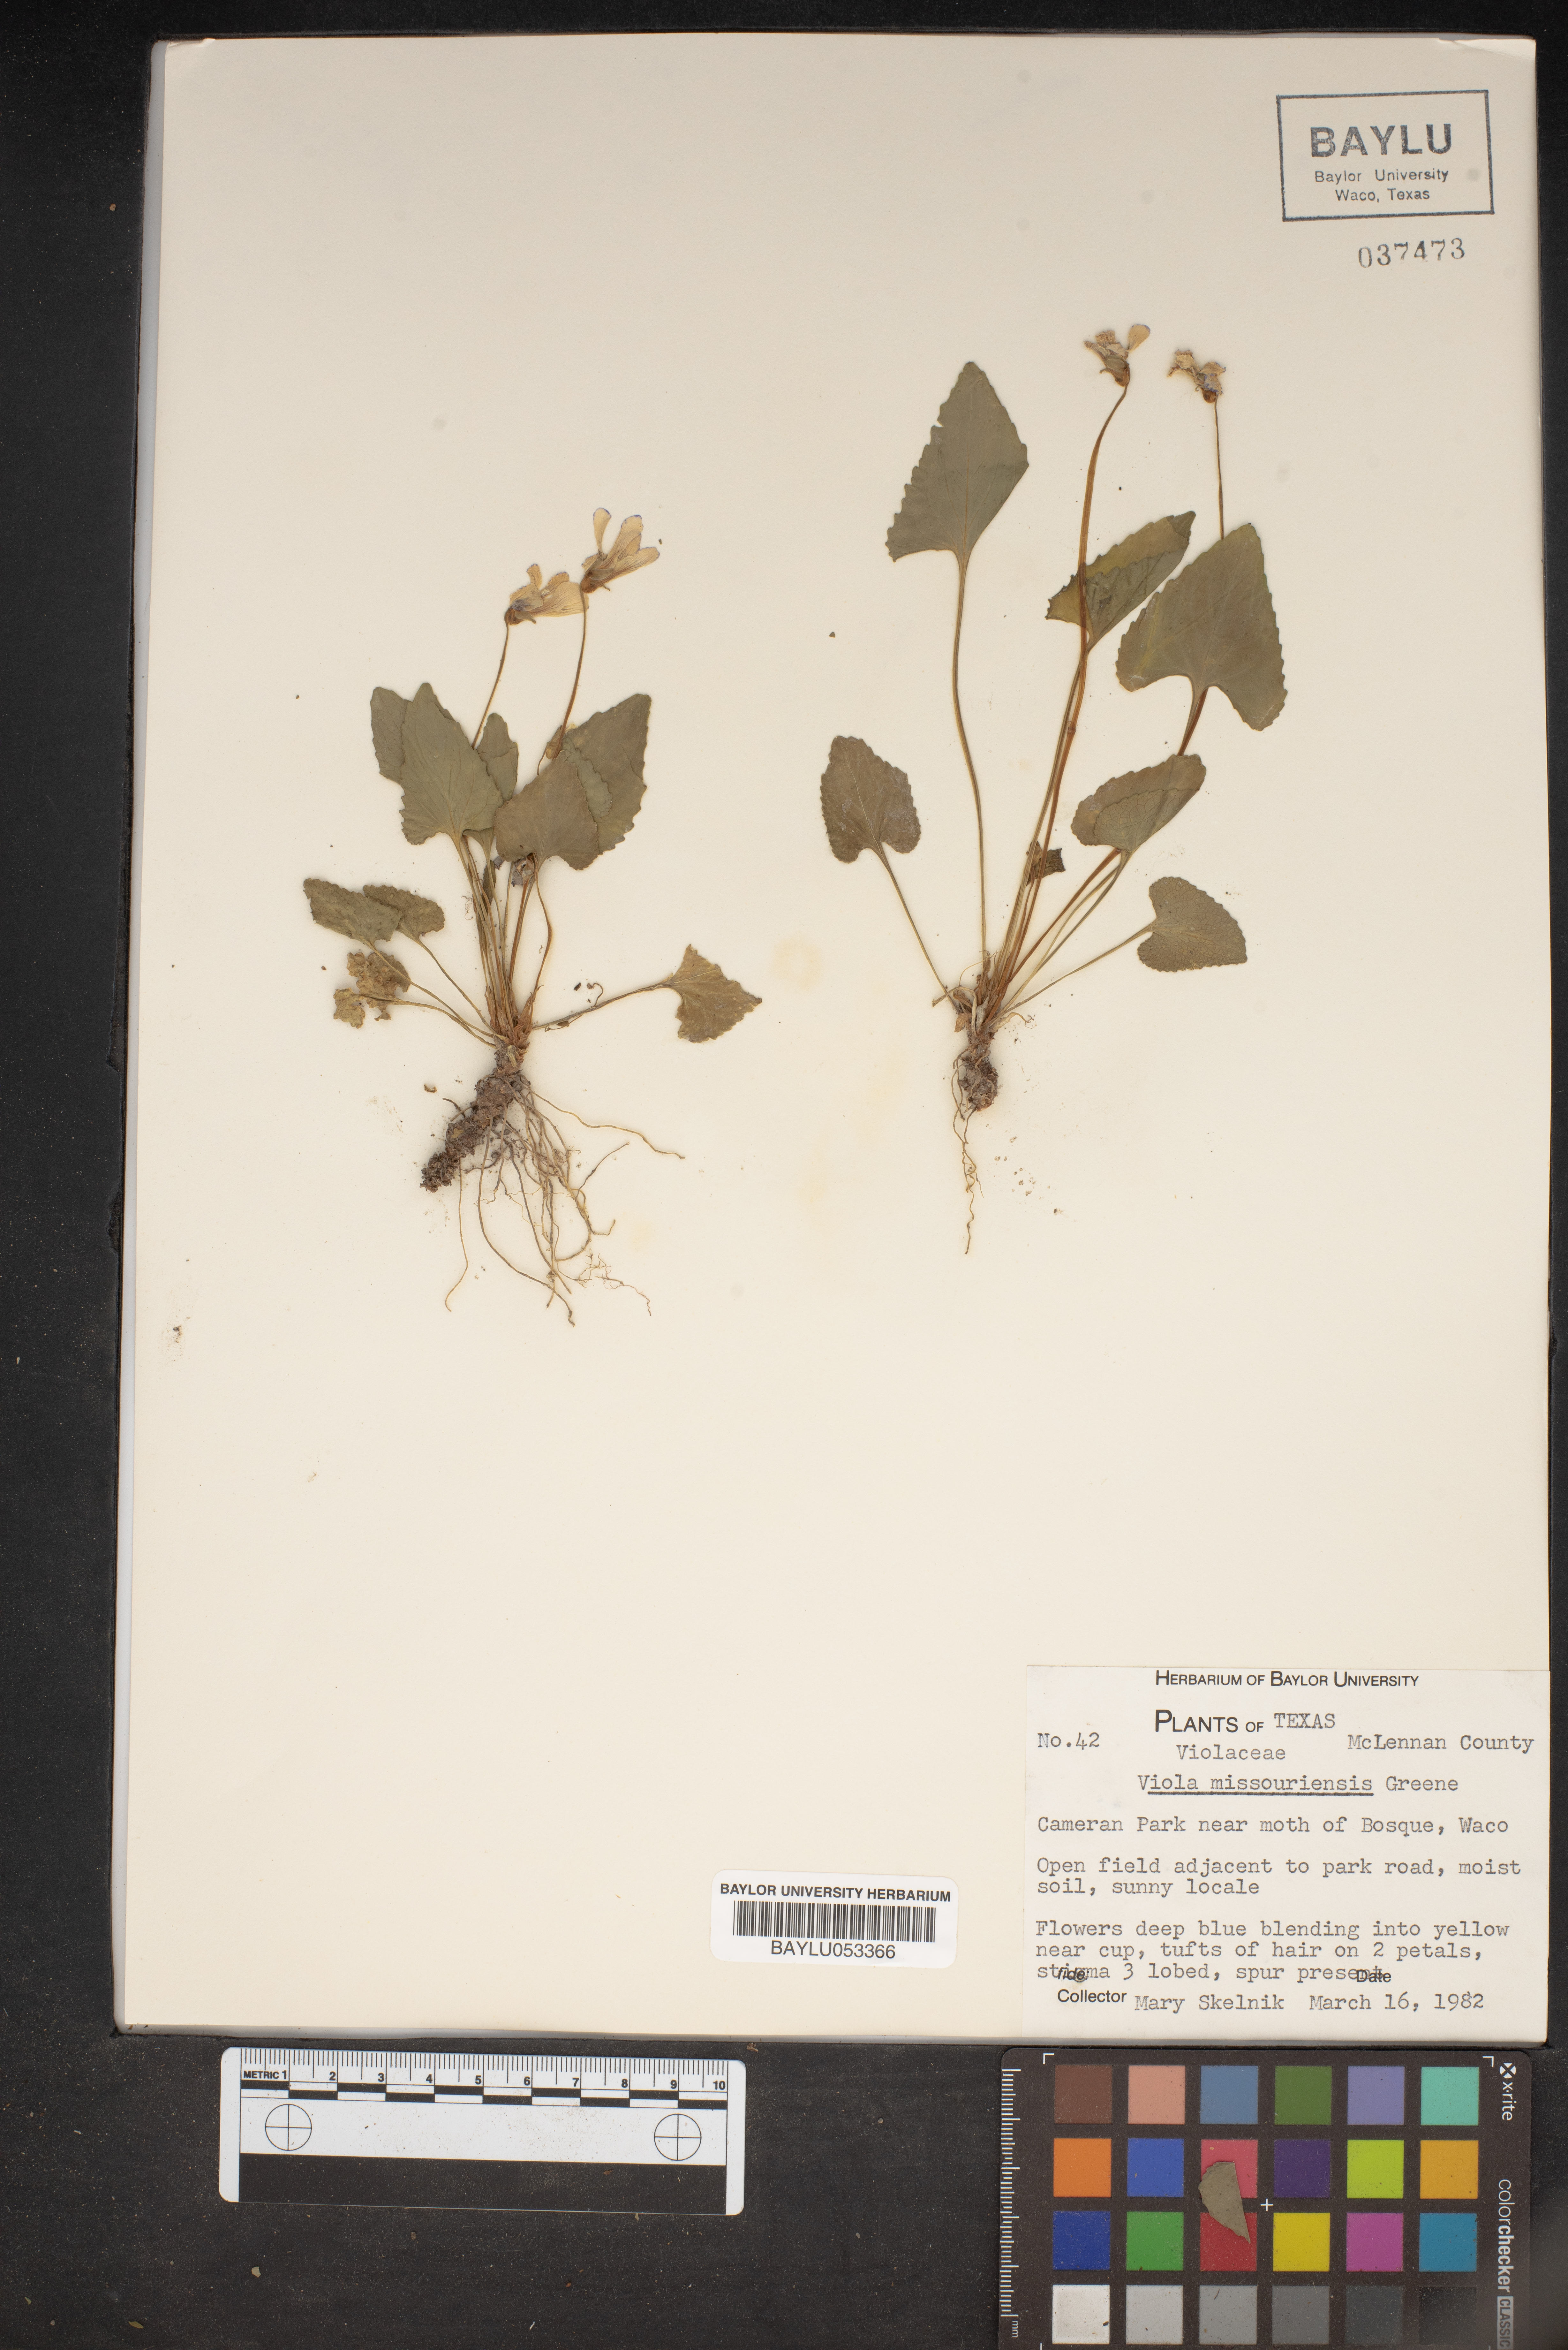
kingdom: Plantae
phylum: Tracheophyta
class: Magnoliopsida
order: Malpighiales
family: Violaceae
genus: Viola
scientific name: Viola missouriensis
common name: Missouri violet
